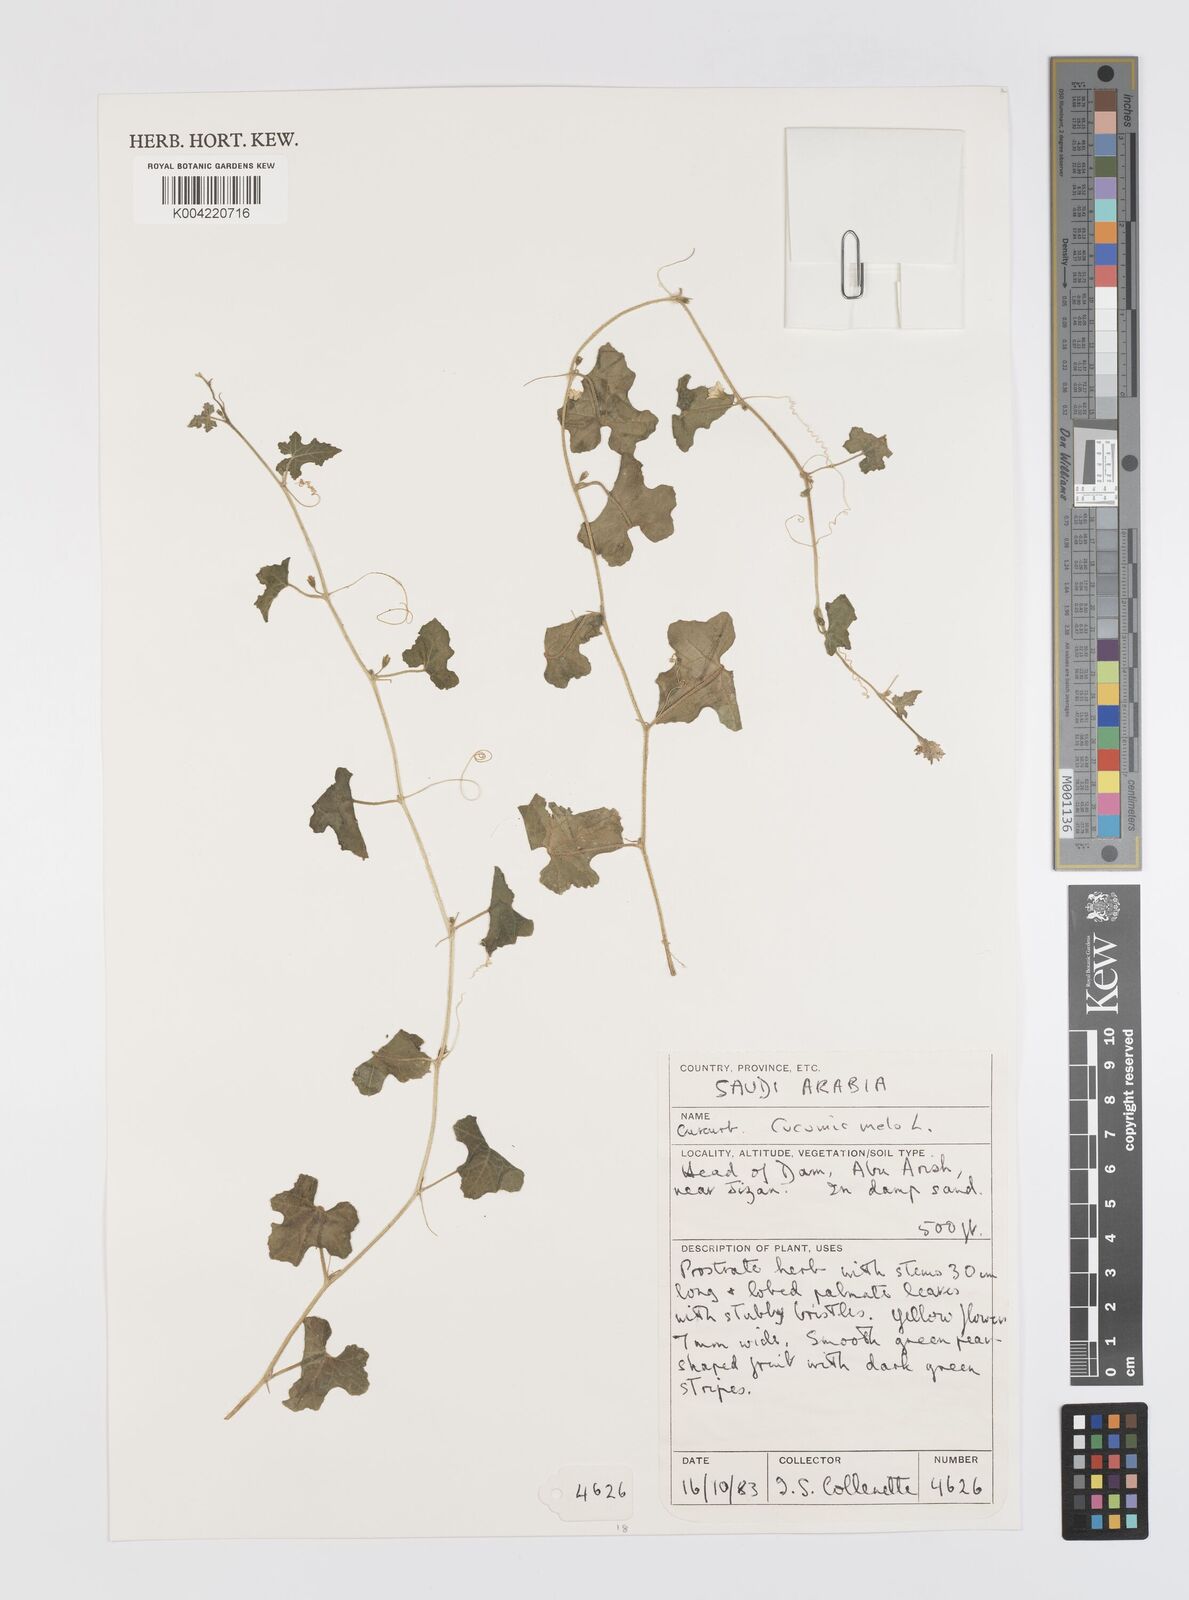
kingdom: Plantae
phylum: Tracheophyta
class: Magnoliopsida
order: Cucurbitales
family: Cucurbitaceae
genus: Cucumis
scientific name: Cucumis melo
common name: Melon
